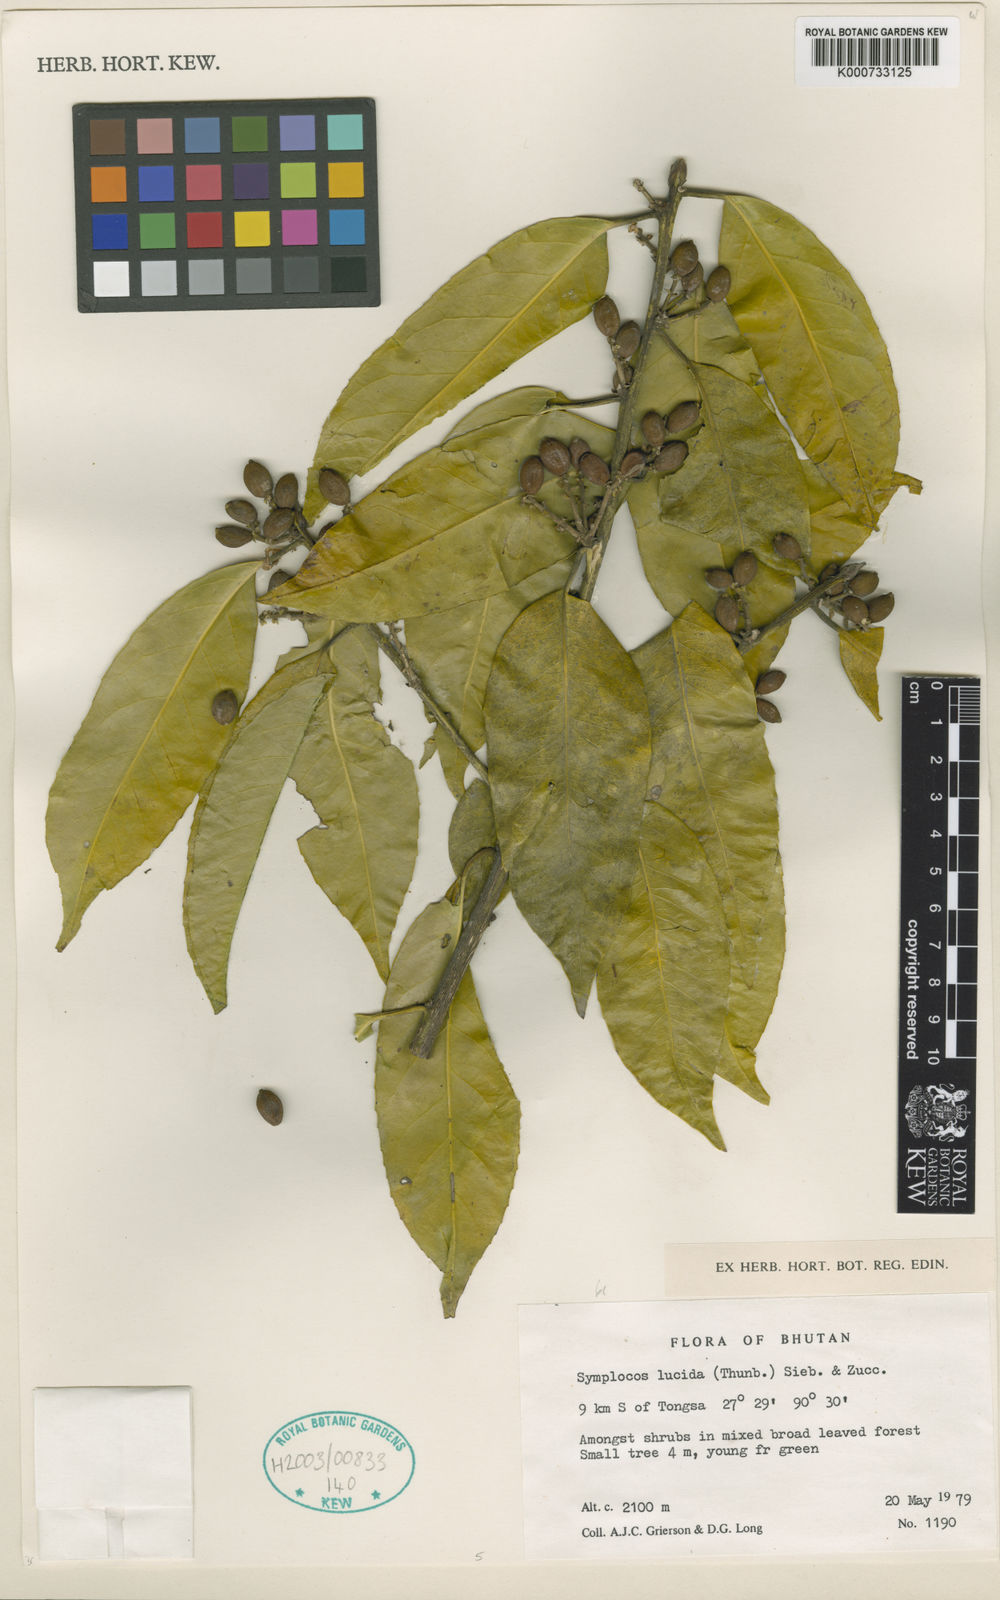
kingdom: Plantae
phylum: Tracheophyta
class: Magnoliopsida
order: Ericales
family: Symplocaceae
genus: Symplocos
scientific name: Symplocos
